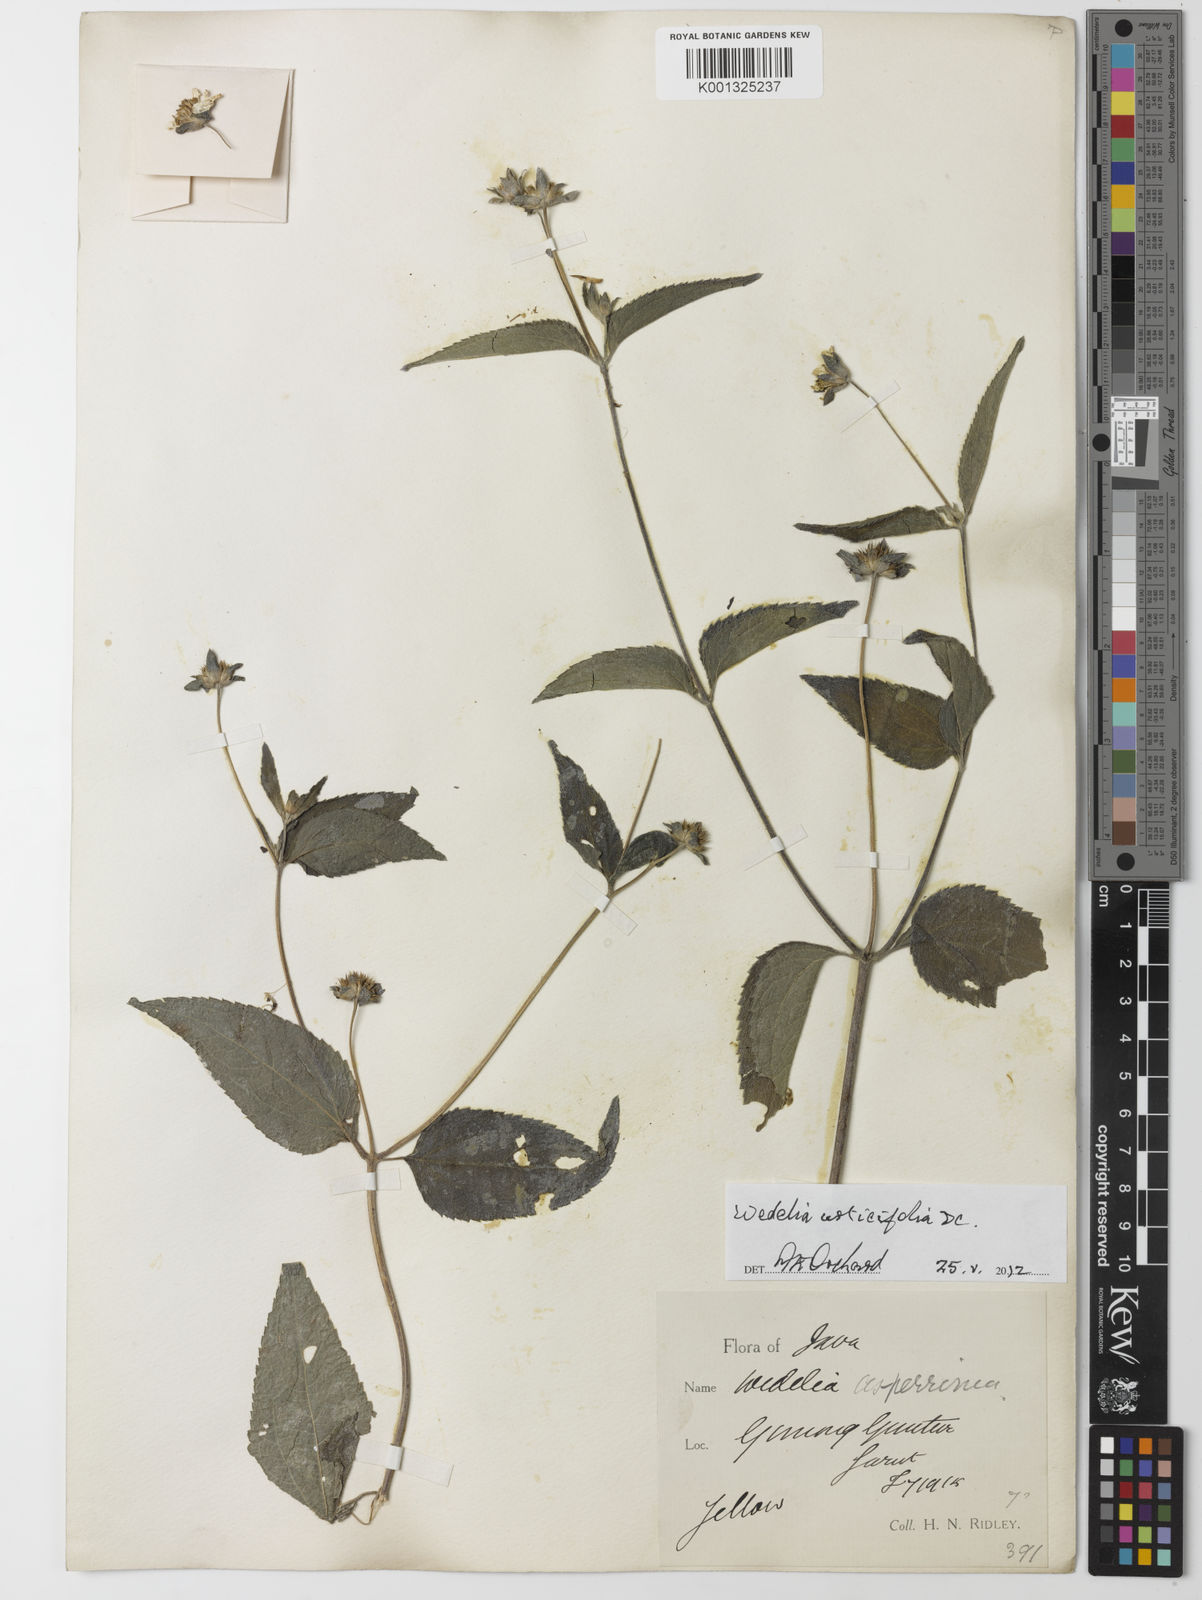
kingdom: Plantae
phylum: Tracheophyta
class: Magnoliopsida
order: Asterales
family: Asteraceae
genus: Lipoblepharis
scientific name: Lipoblepharis urticifolia
